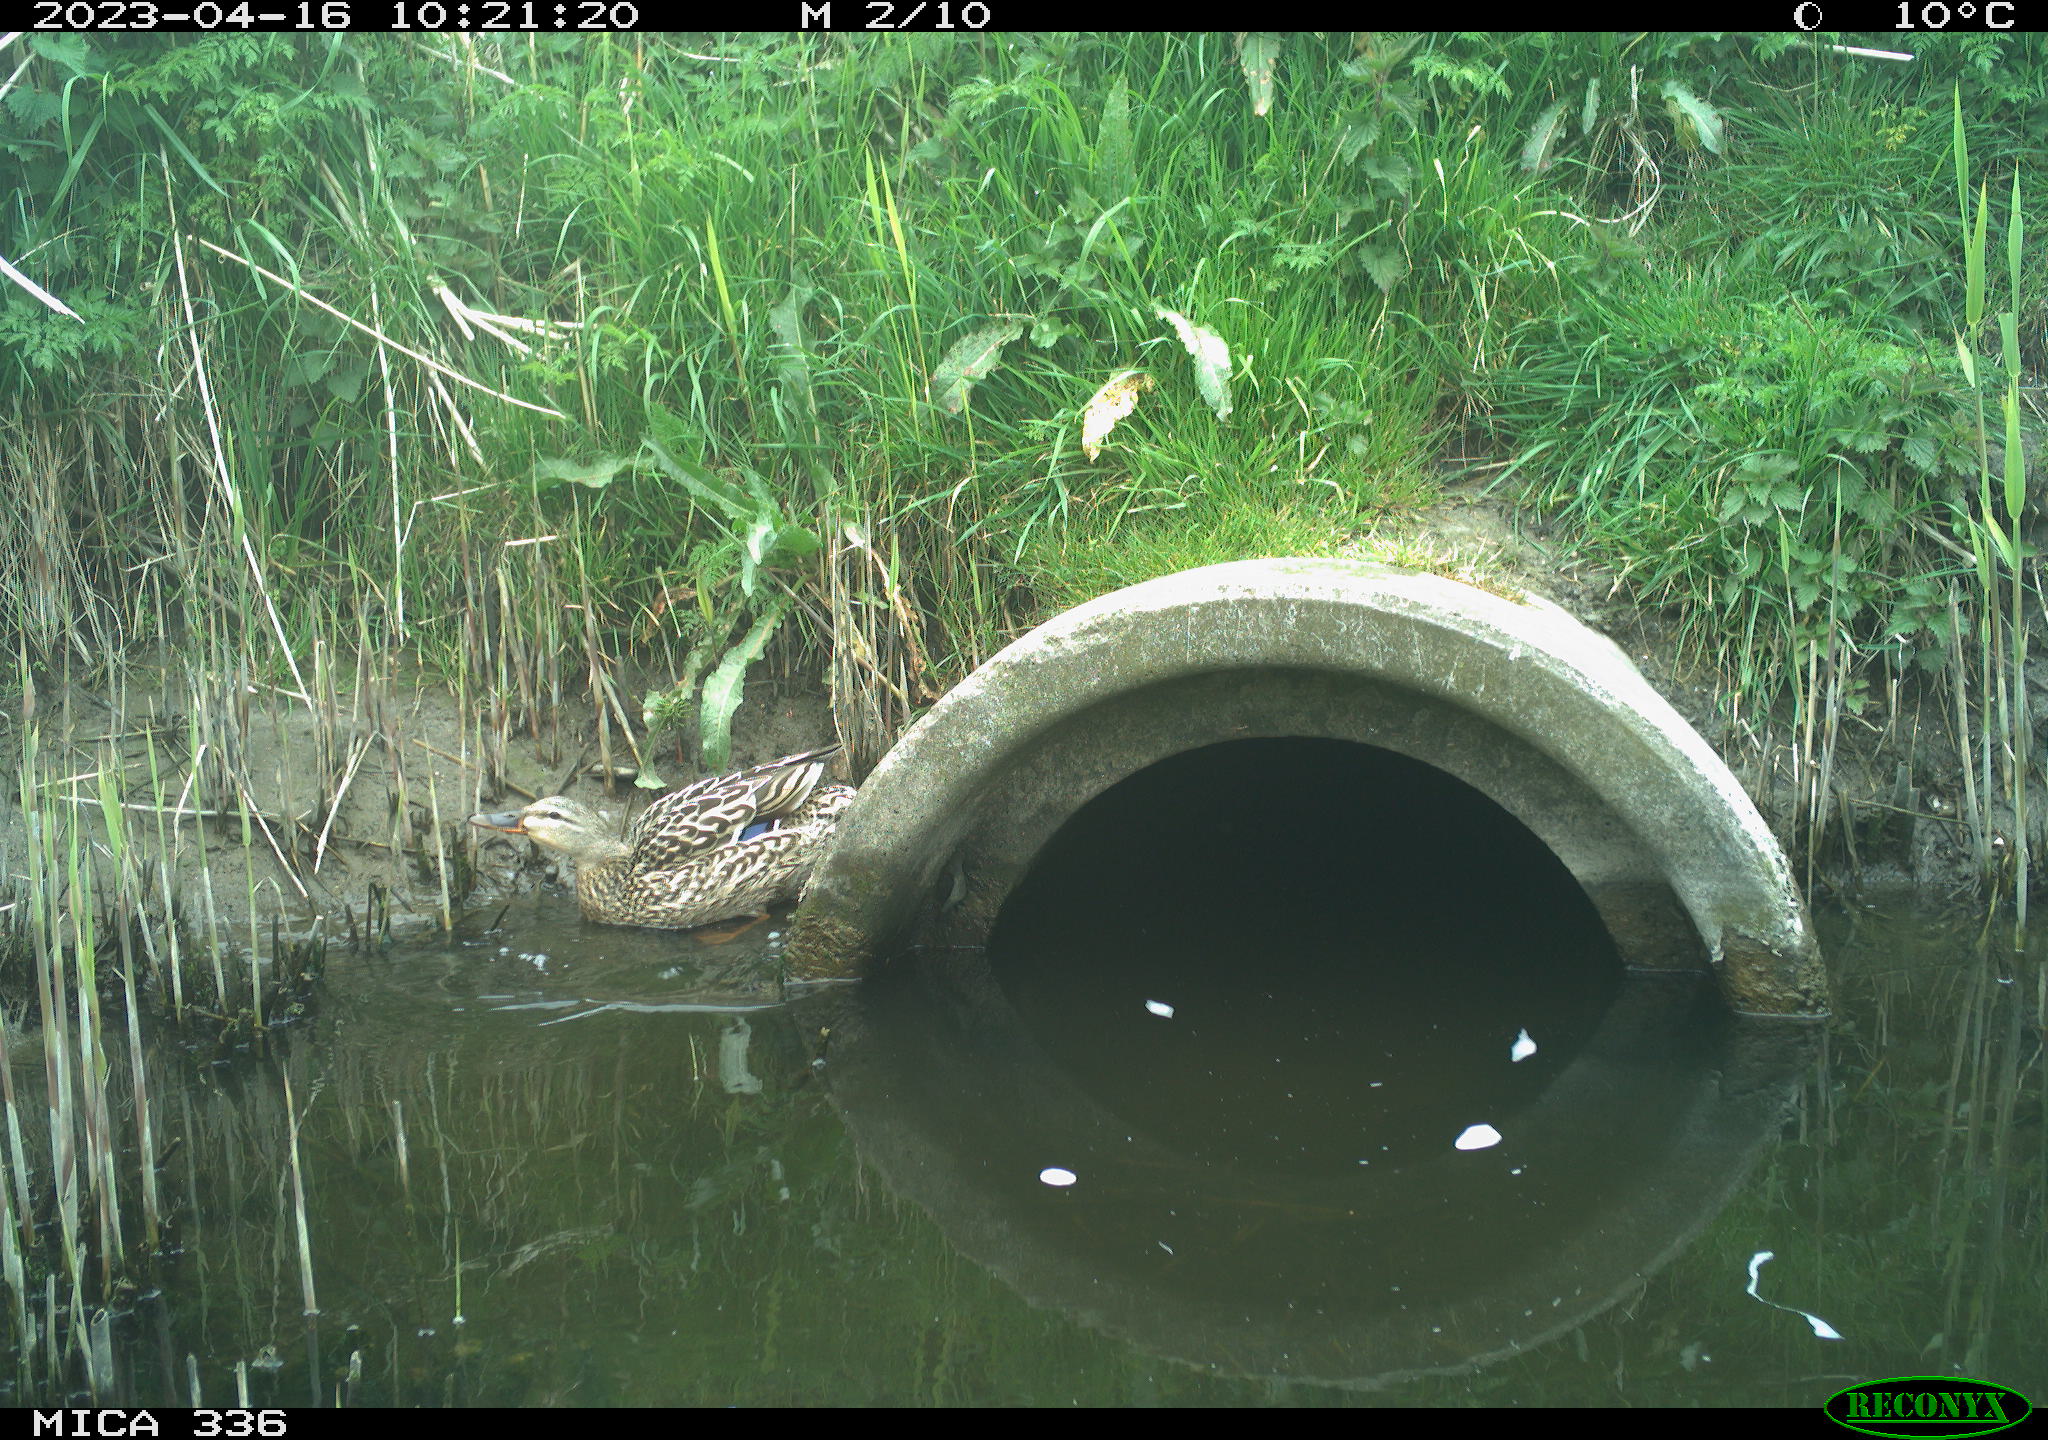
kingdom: Animalia
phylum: Chordata
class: Aves
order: Anseriformes
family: Anatidae
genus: Anas
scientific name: Anas platyrhynchos
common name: Mallard
